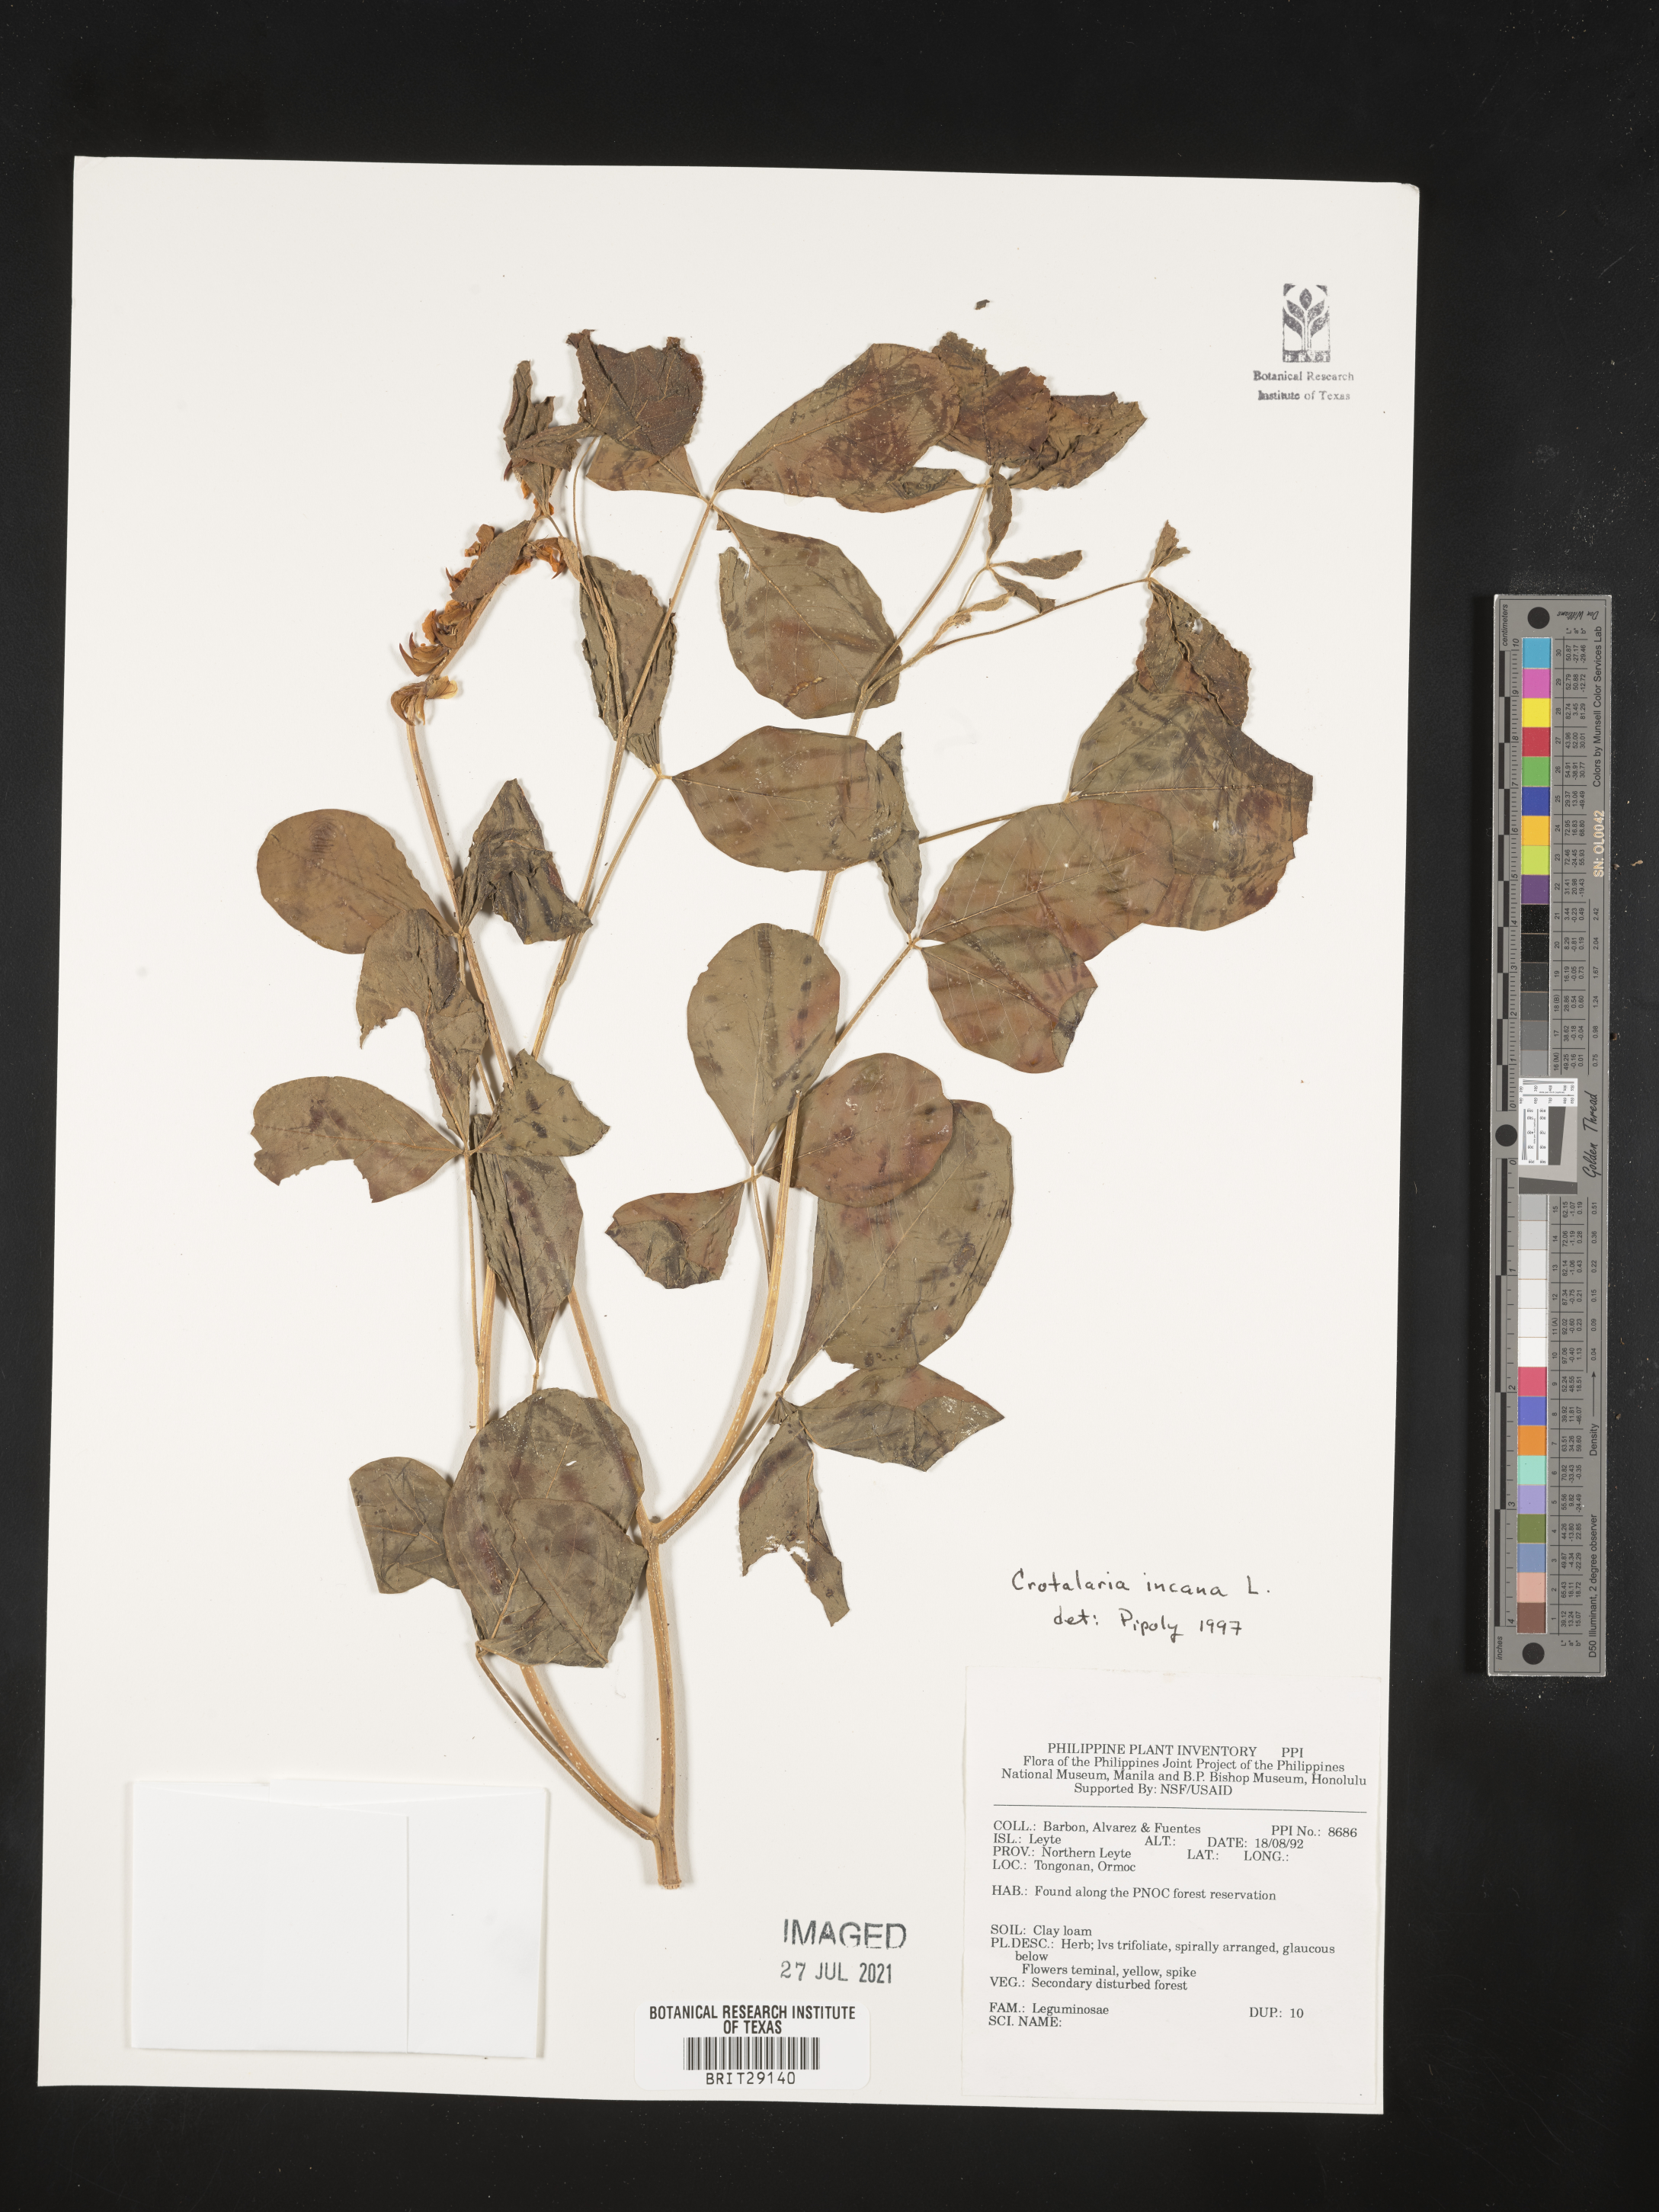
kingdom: Plantae
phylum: Tracheophyta
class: Magnoliopsida
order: Fabales
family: Fabaceae
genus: Crotalaria
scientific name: Crotalaria incana
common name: Shakeshake
